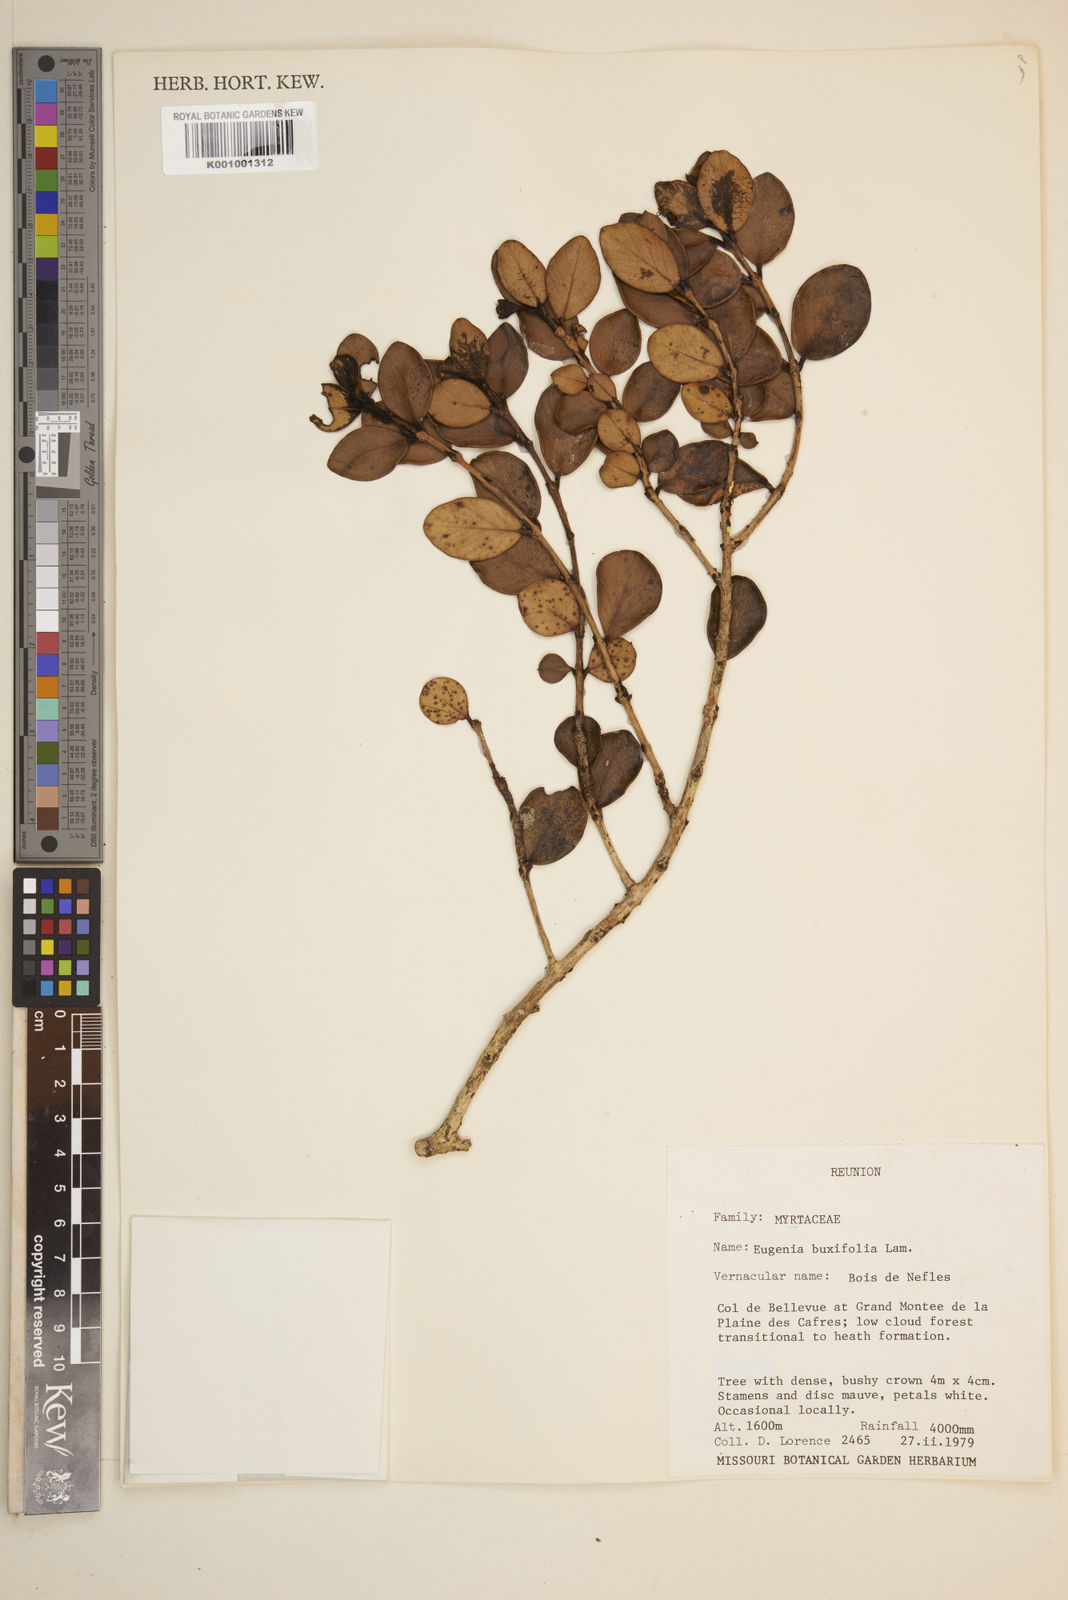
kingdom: Plantae
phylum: Tracheophyta
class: Magnoliopsida
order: Myrtales
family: Myrtaceae
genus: Eugenia
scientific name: Eugenia buxifolia
